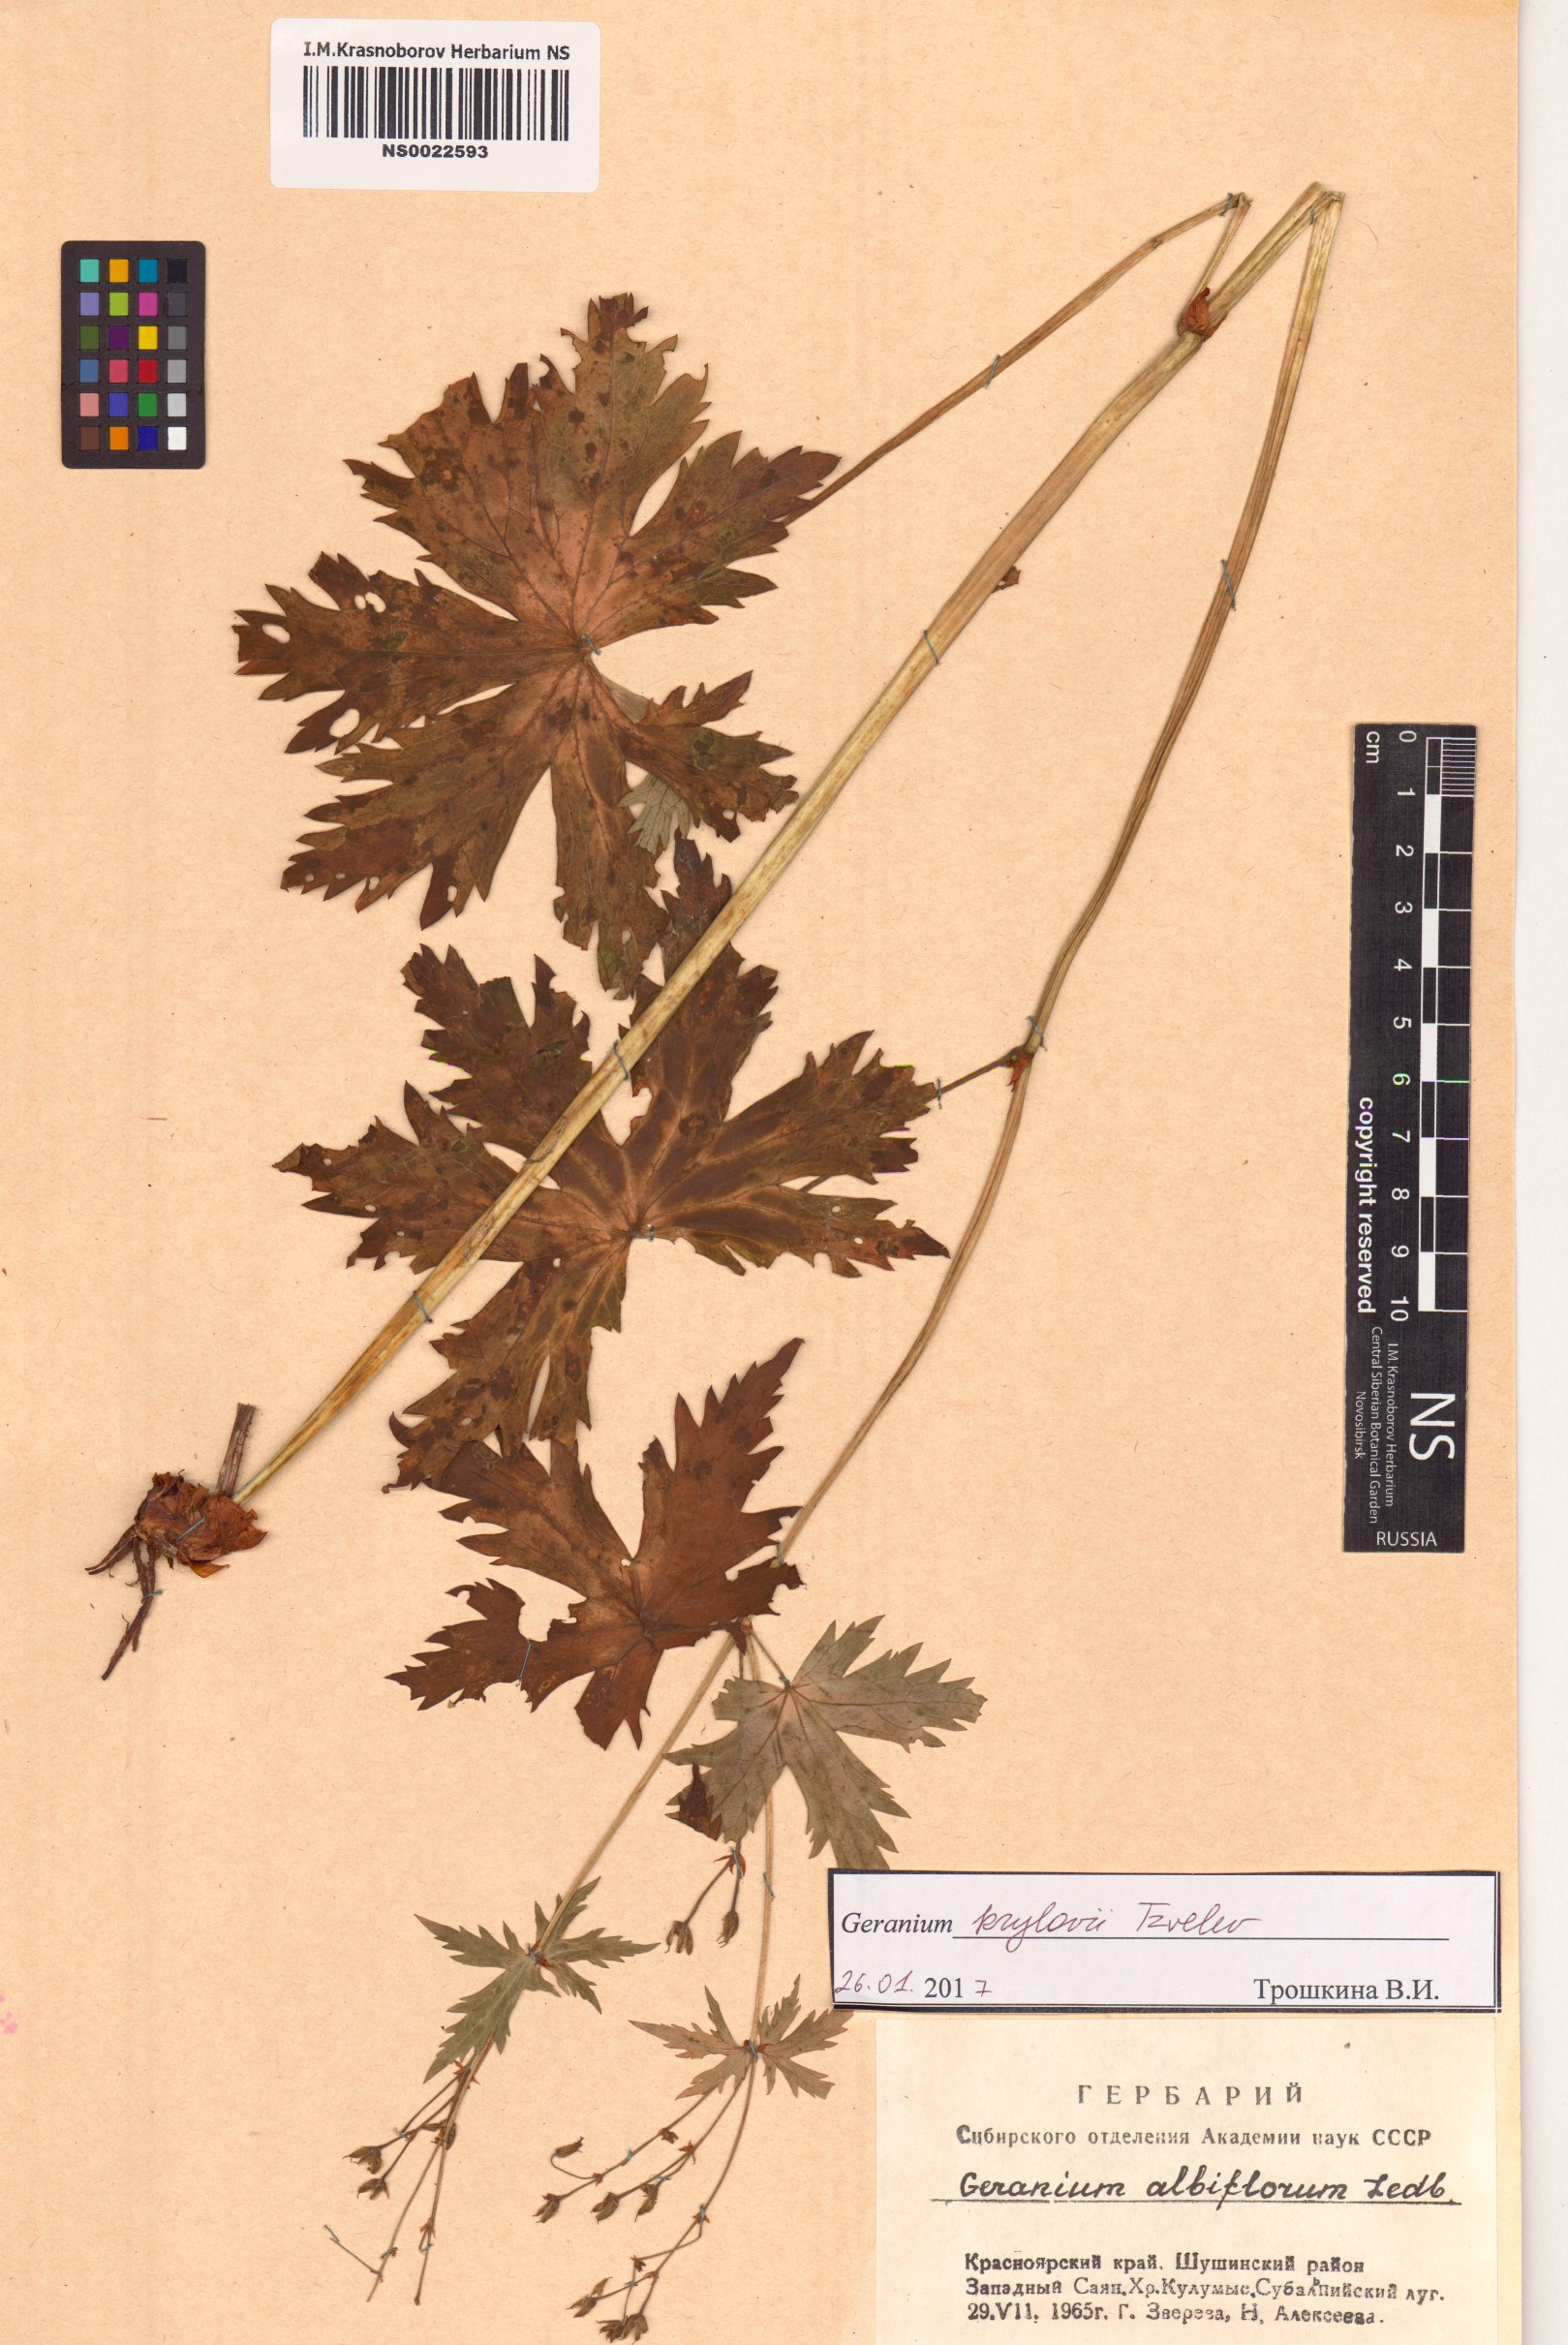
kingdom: Plantae
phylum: Tracheophyta
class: Magnoliopsida
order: Geraniales
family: Geraniaceae
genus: Geranium
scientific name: Geranium sylvaticum
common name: Wood crane's-bill
